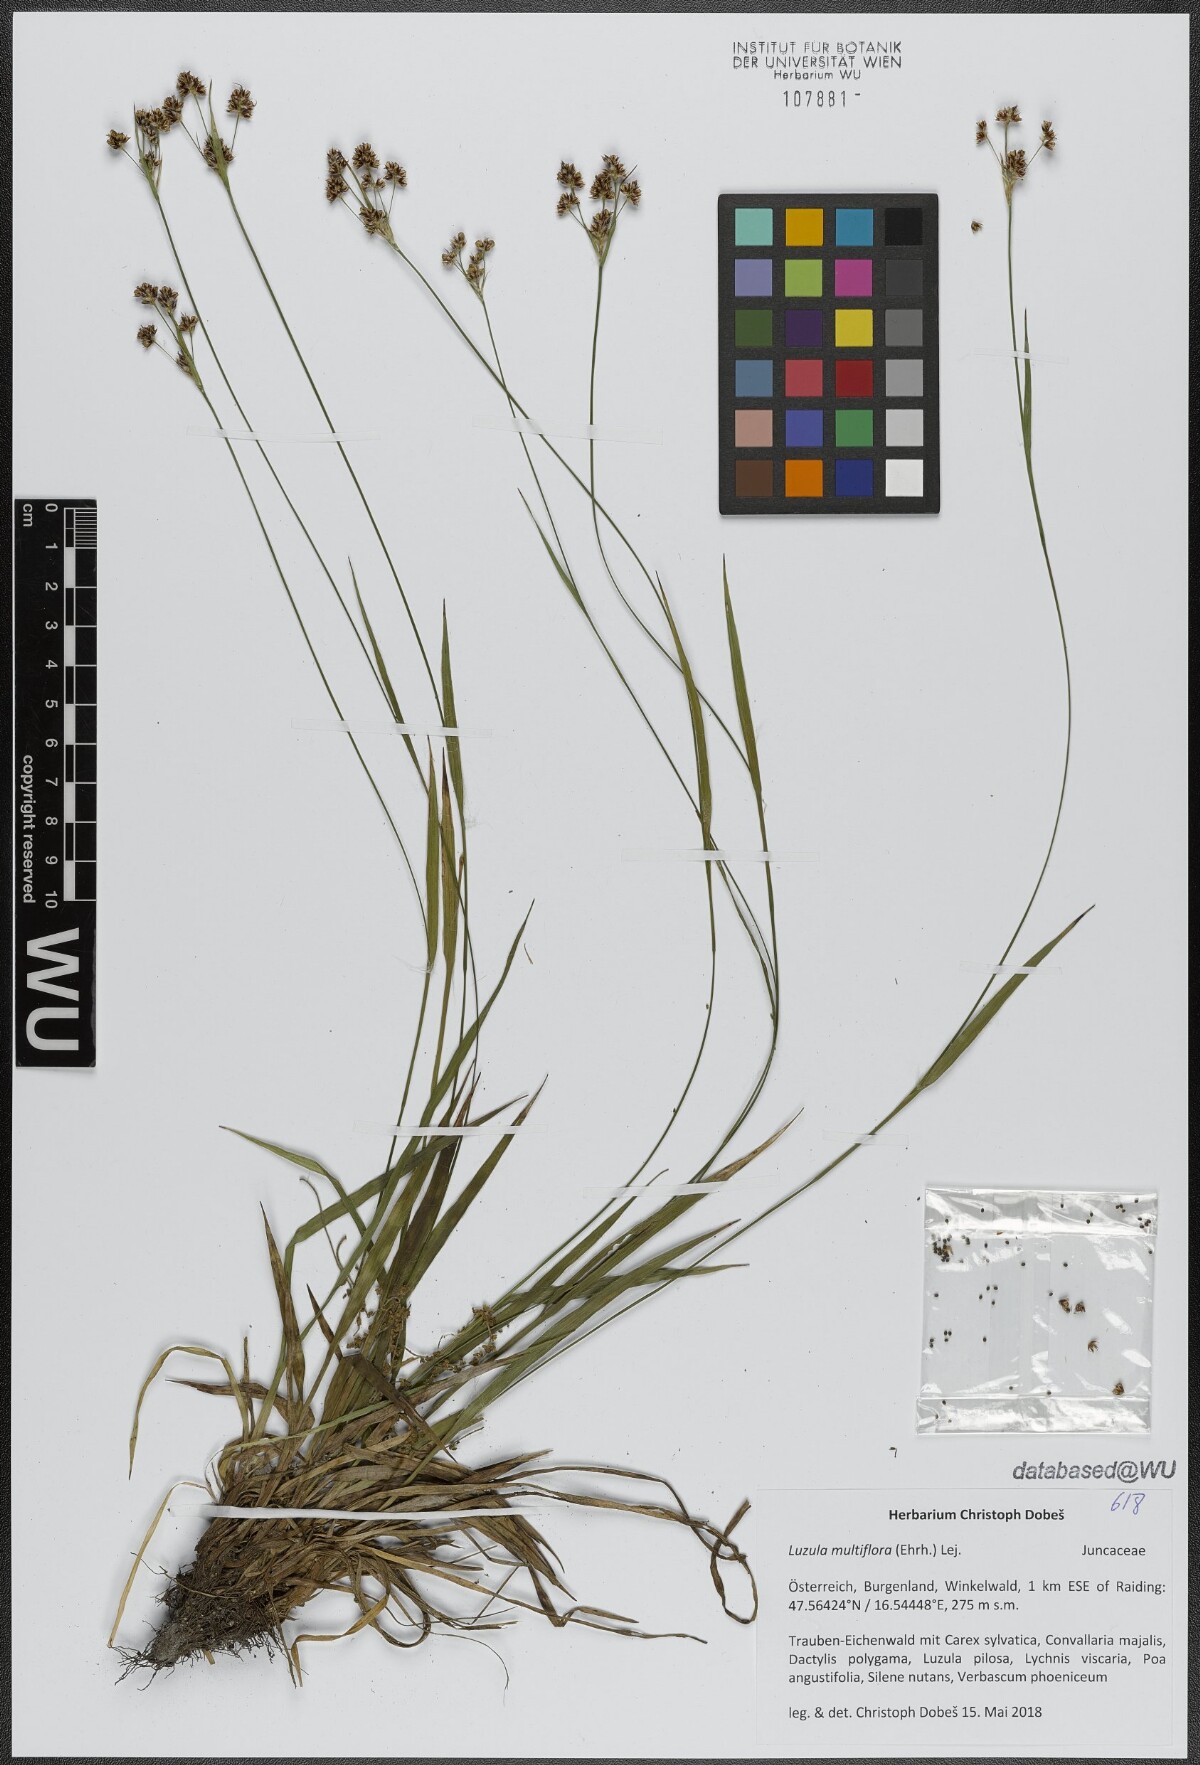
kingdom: Plantae
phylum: Tracheophyta
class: Liliopsida
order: Poales
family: Juncaceae
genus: Luzula
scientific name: Luzula multiflora
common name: Heath wood-rush
